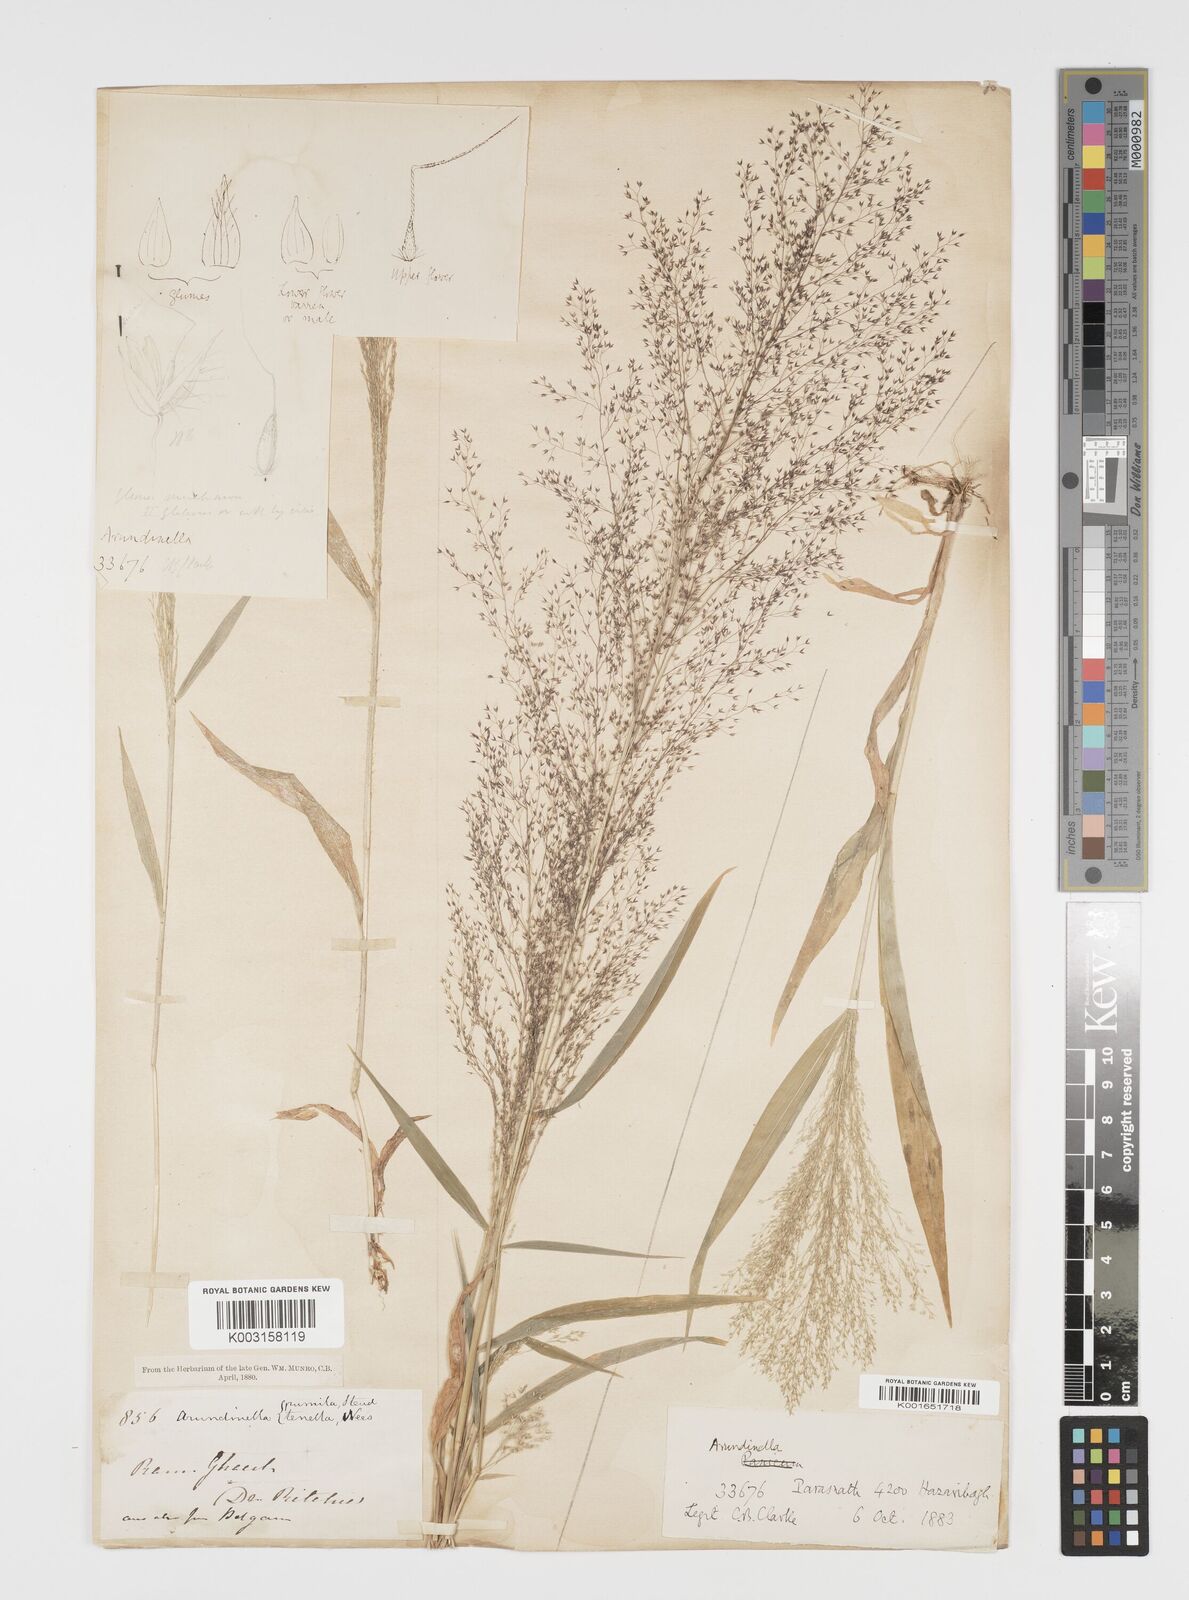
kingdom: Plantae
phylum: Tracheophyta
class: Liliopsida
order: Poales
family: Poaceae
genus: Arundinella
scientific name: Arundinella pumila
